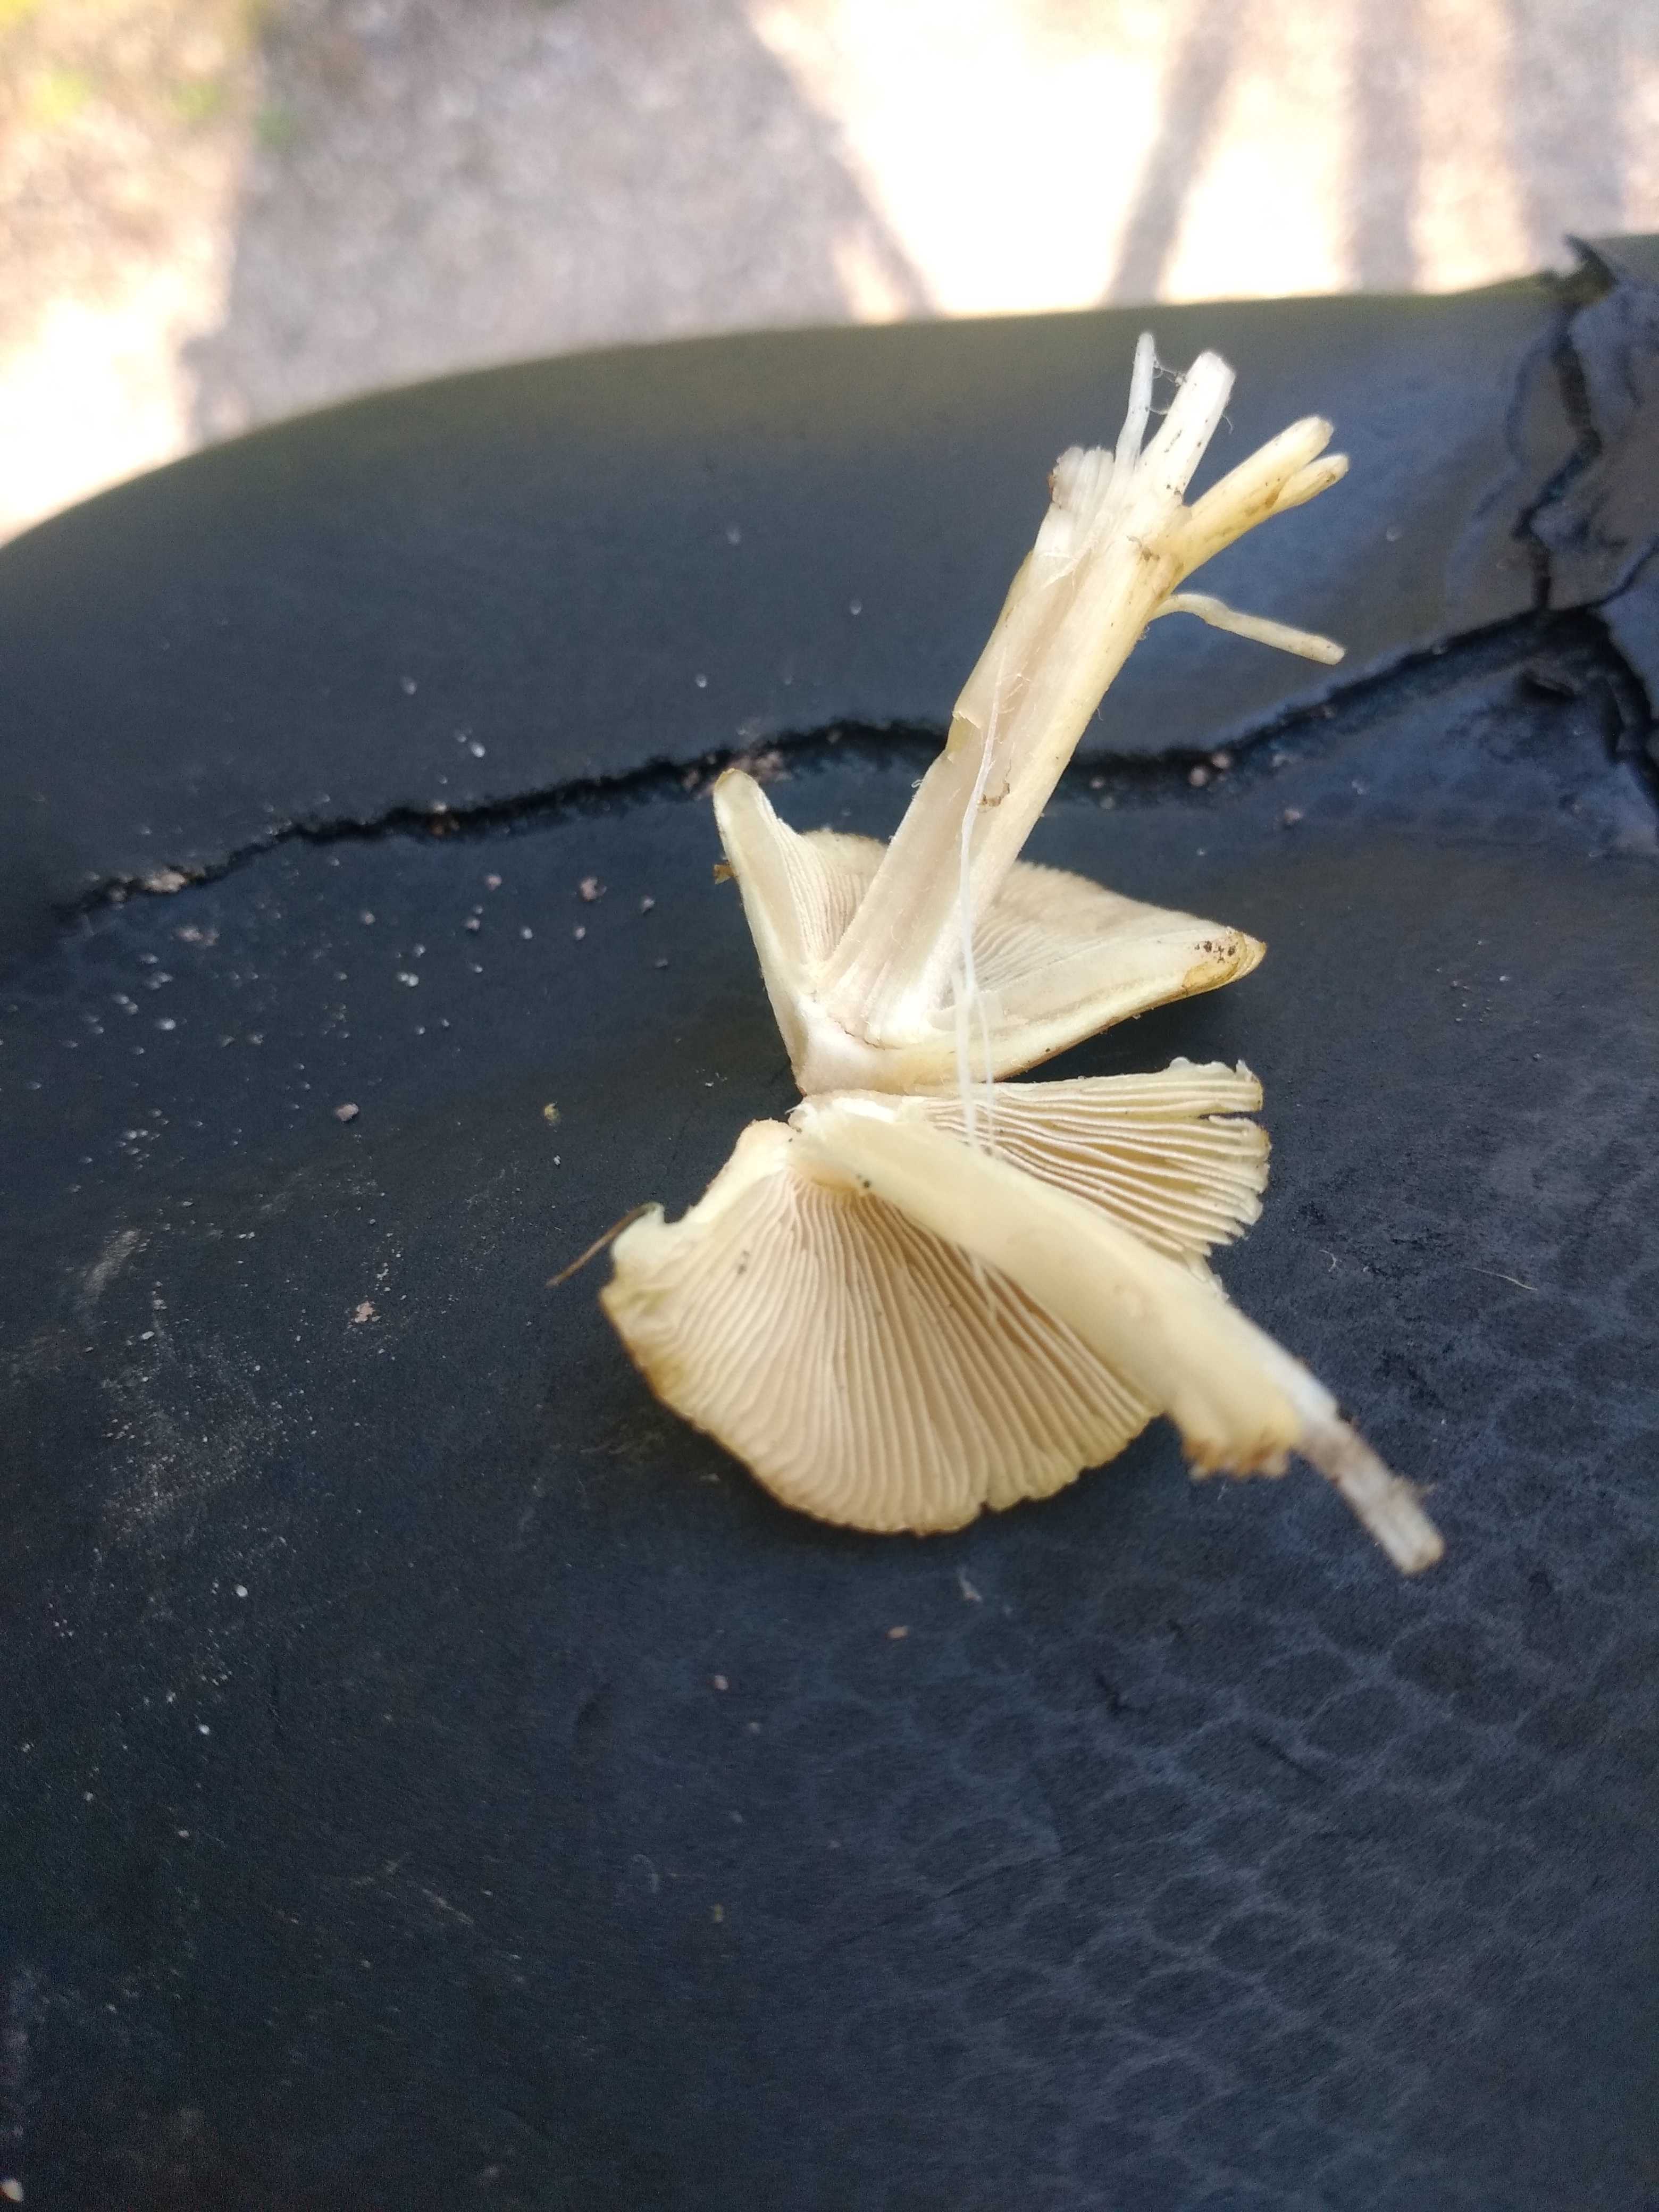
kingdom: Fungi
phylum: Basidiomycota
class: Agaricomycetes
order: Agaricales
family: Inocybaceae
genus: Pseudosperma
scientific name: Pseudosperma
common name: trævlhat
